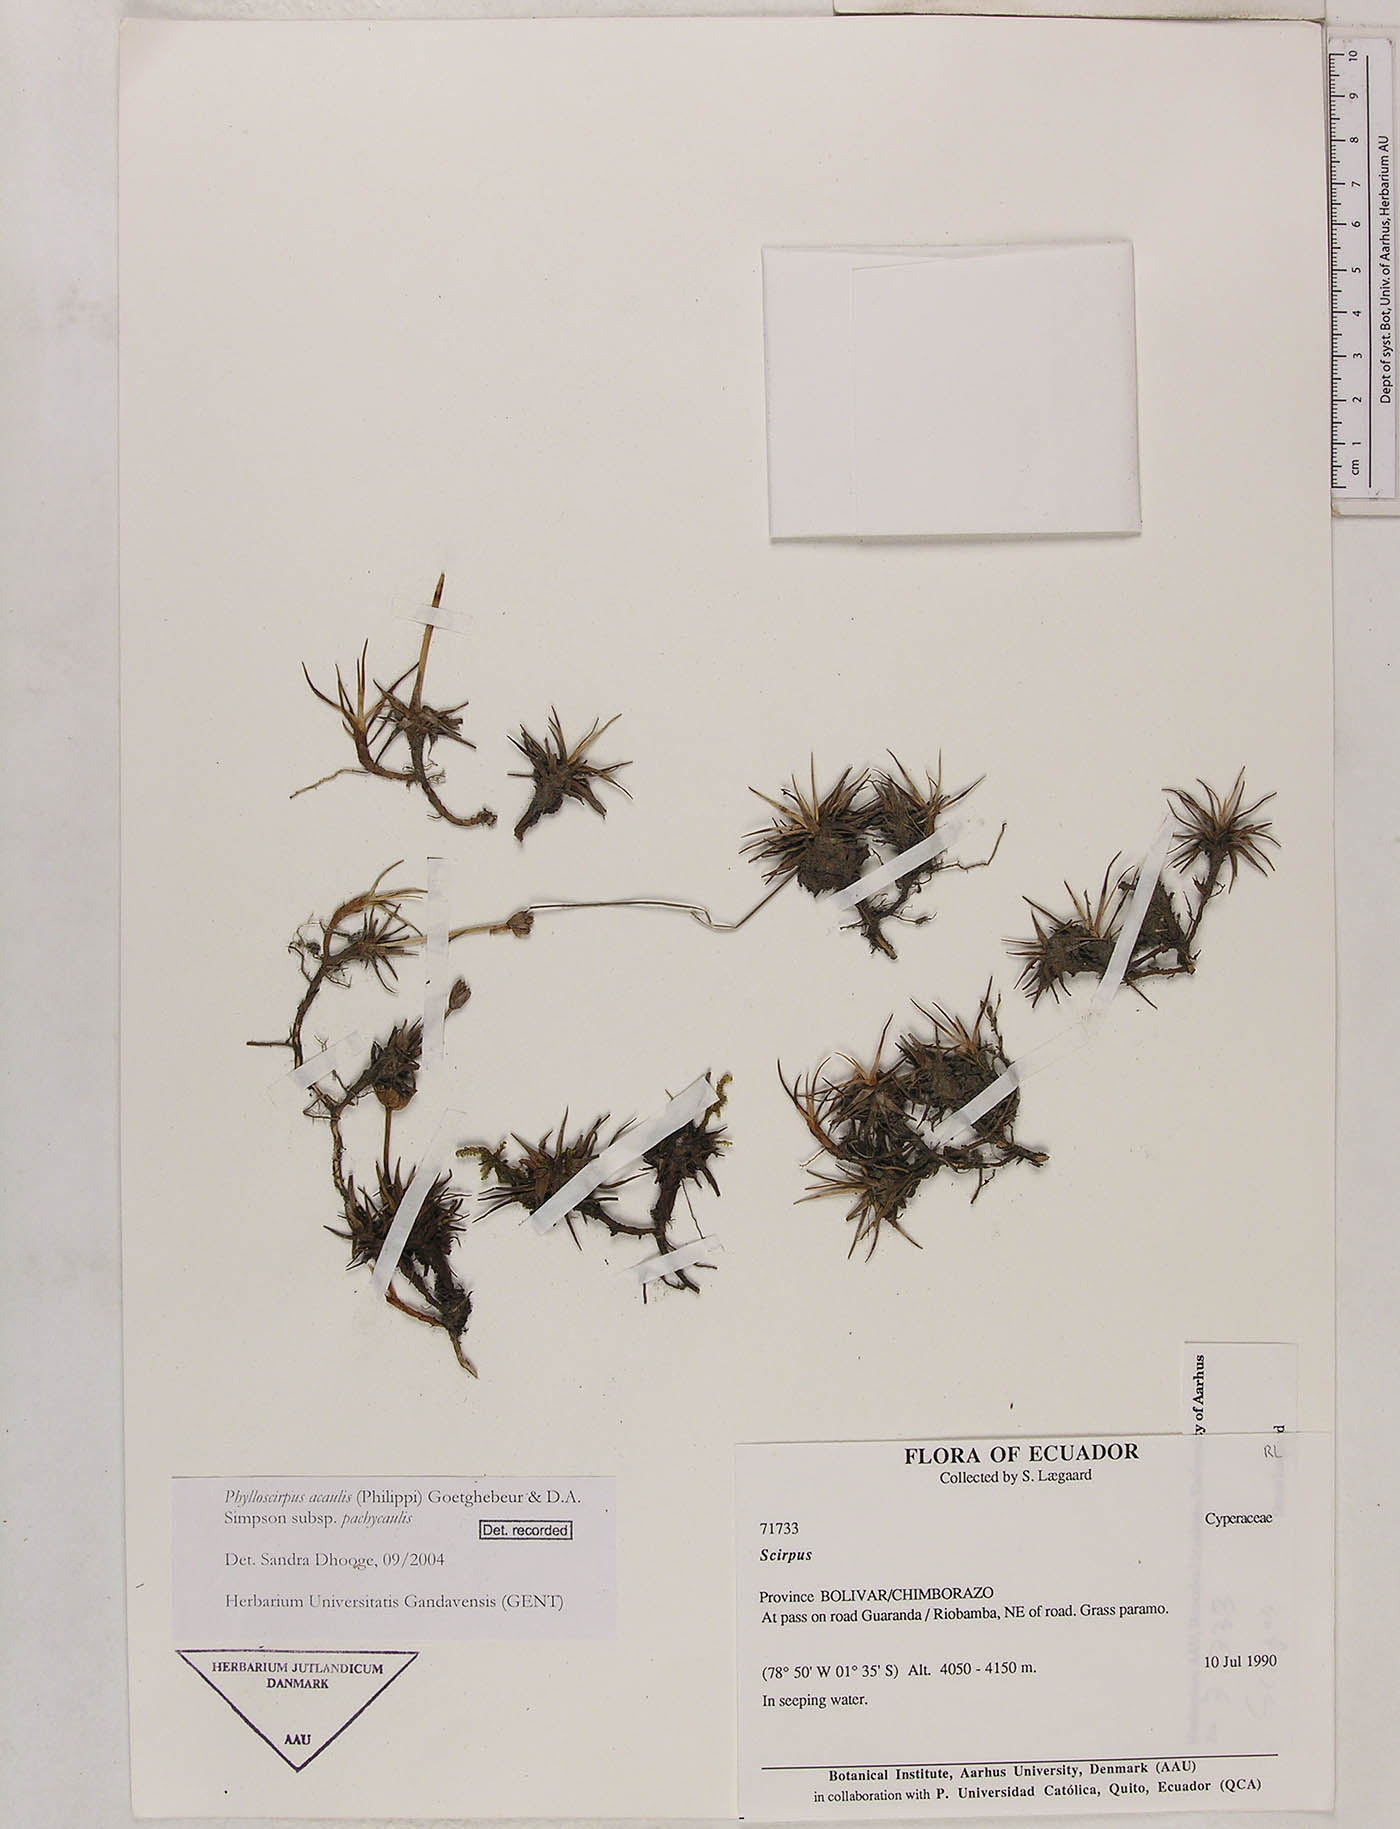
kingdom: Plantae
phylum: Tracheophyta
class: Liliopsida
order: Poales
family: Cyperaceae
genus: Phylloscirpus
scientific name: Phylloscirpus acaulis
